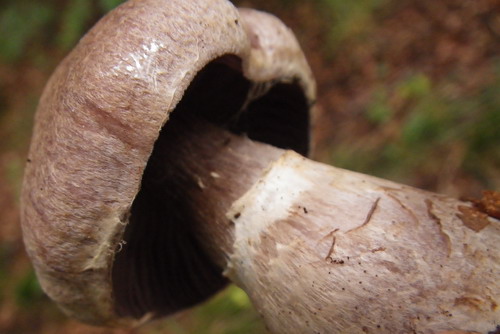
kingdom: Fungi
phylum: Basidiomycota
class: Agaricomycetes
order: Agaricales
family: Cortinariaceae
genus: Cortinarius
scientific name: Cortinarius torvus
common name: champignonagtig slørhat
